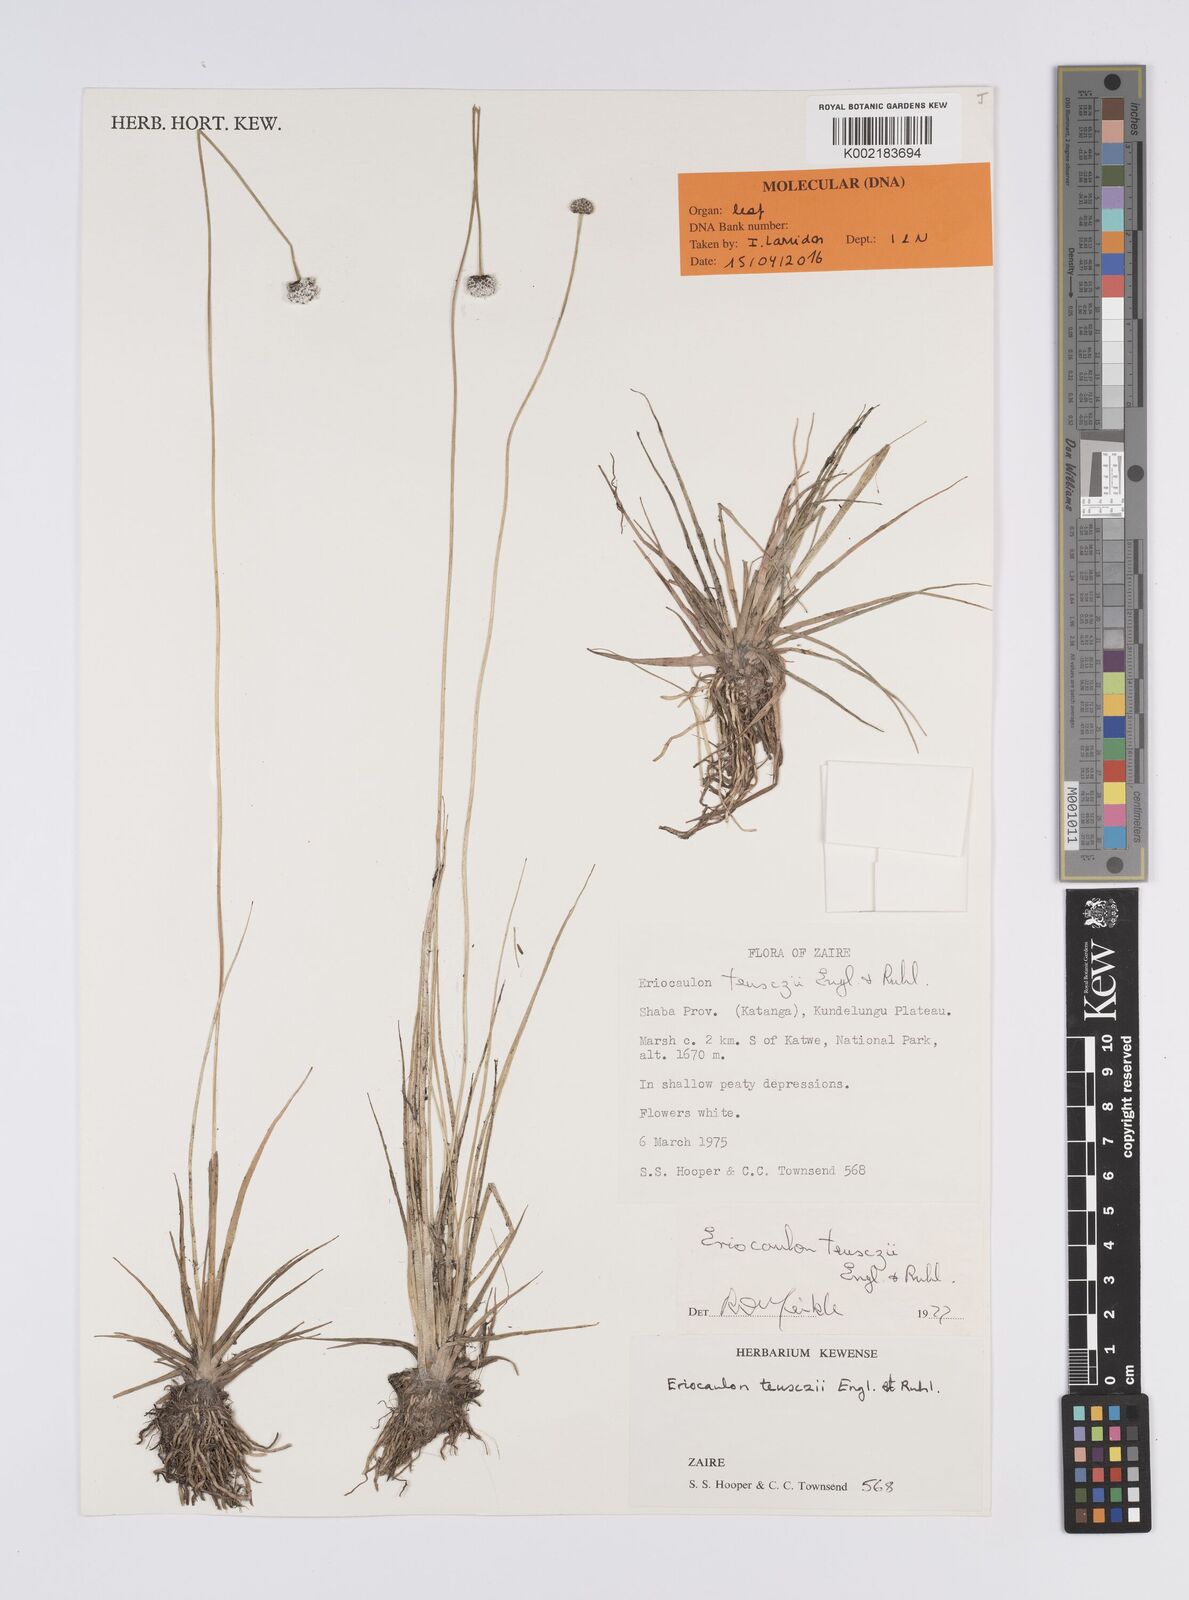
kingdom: Plantae
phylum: Tracheophyta
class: Liliopsida
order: Poales
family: Eriocaulaceae
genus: Eriocaulon
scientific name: Eriocaulon teusczii
